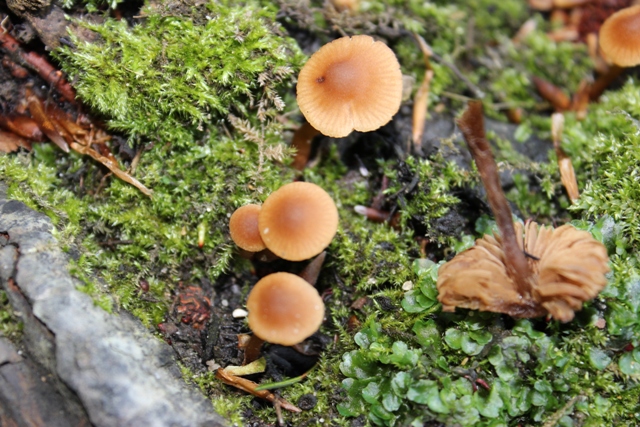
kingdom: Fungi
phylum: Basidiomycota
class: Agaricomycetes
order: Agaricales
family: Hymenogastraceae
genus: Naucoria
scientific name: Naucoria scolecina
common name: mørk elle-knaphat
